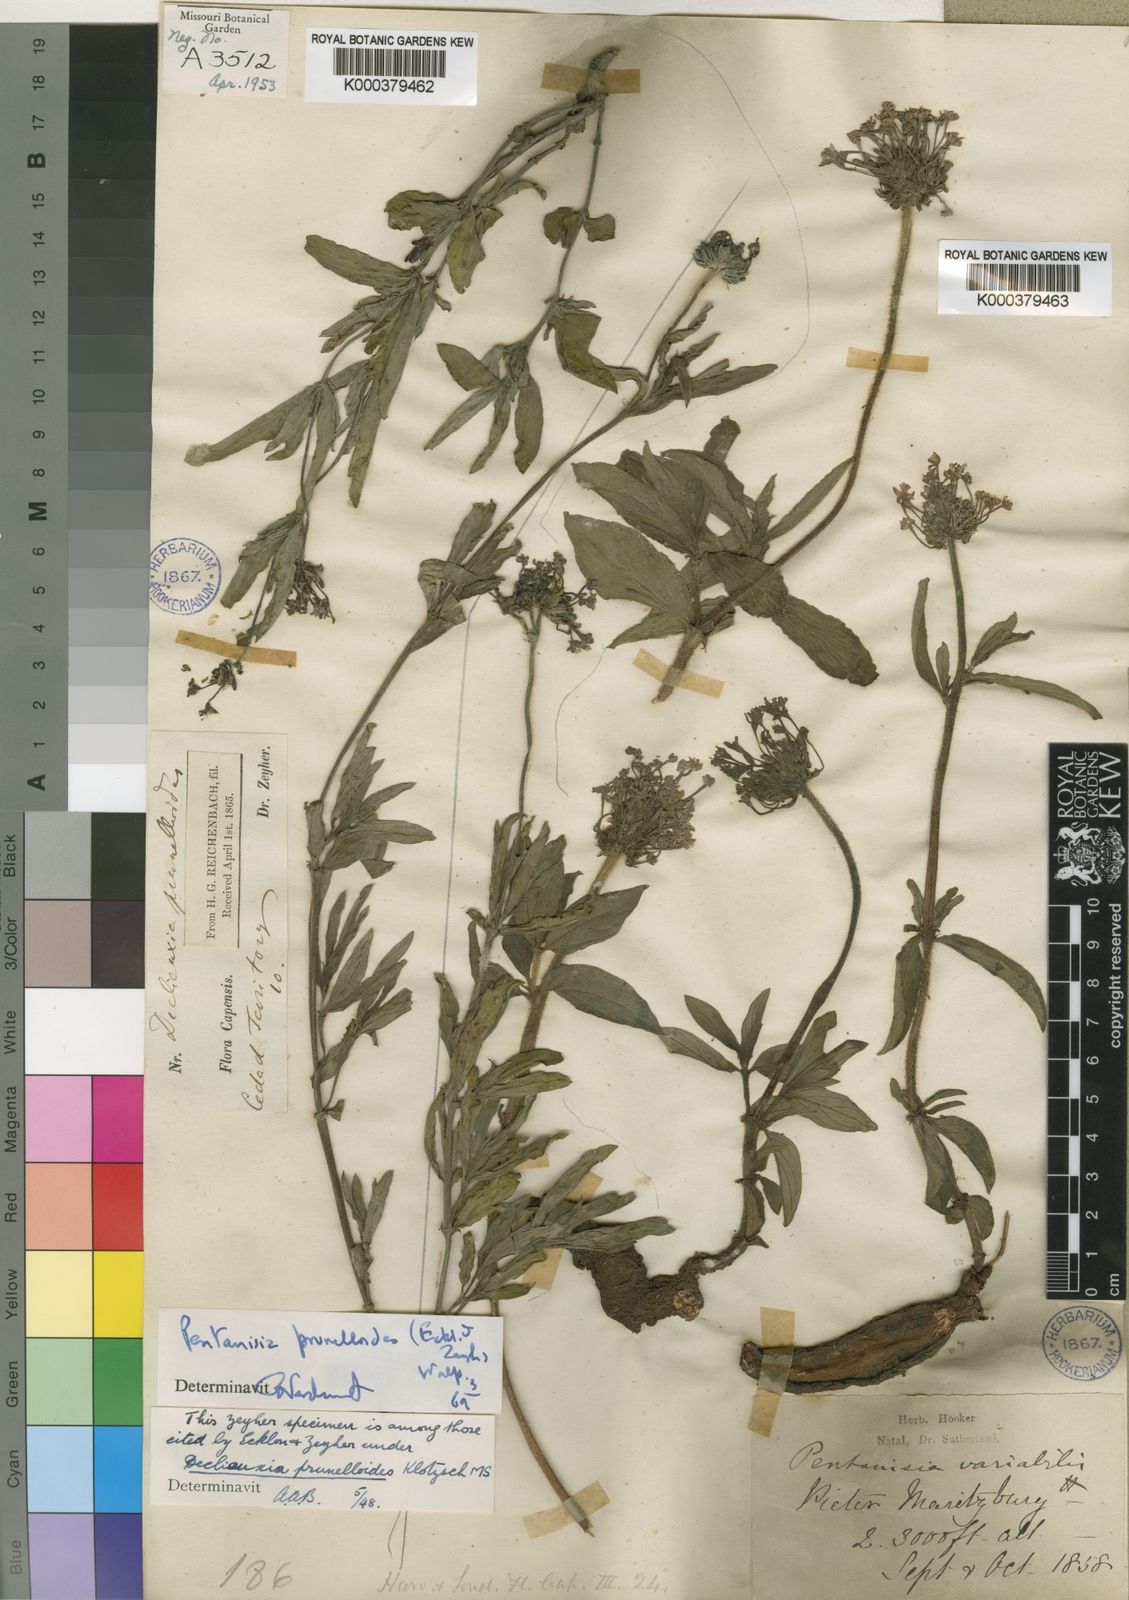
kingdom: Plantae
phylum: Tracheophyta
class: Magnoliopsida
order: Gentianales
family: Rubiaceae
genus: Pentanisia
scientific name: Pentanisia prunelloides
